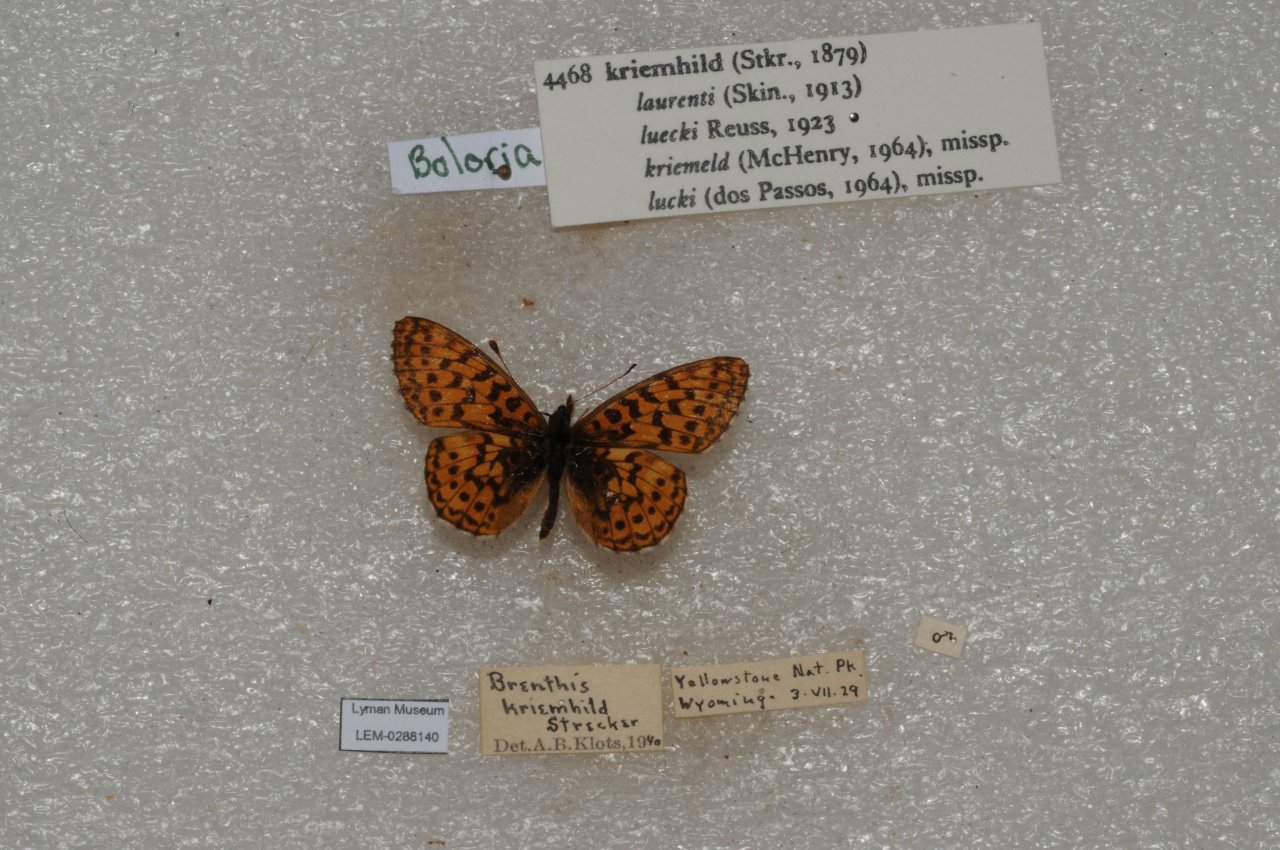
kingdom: Animalia
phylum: Arthropoda
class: Insecta
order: Lepidoptera
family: Nymphalidae
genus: Boloria
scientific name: Boloria kriemhild
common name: Relict Fritillary
